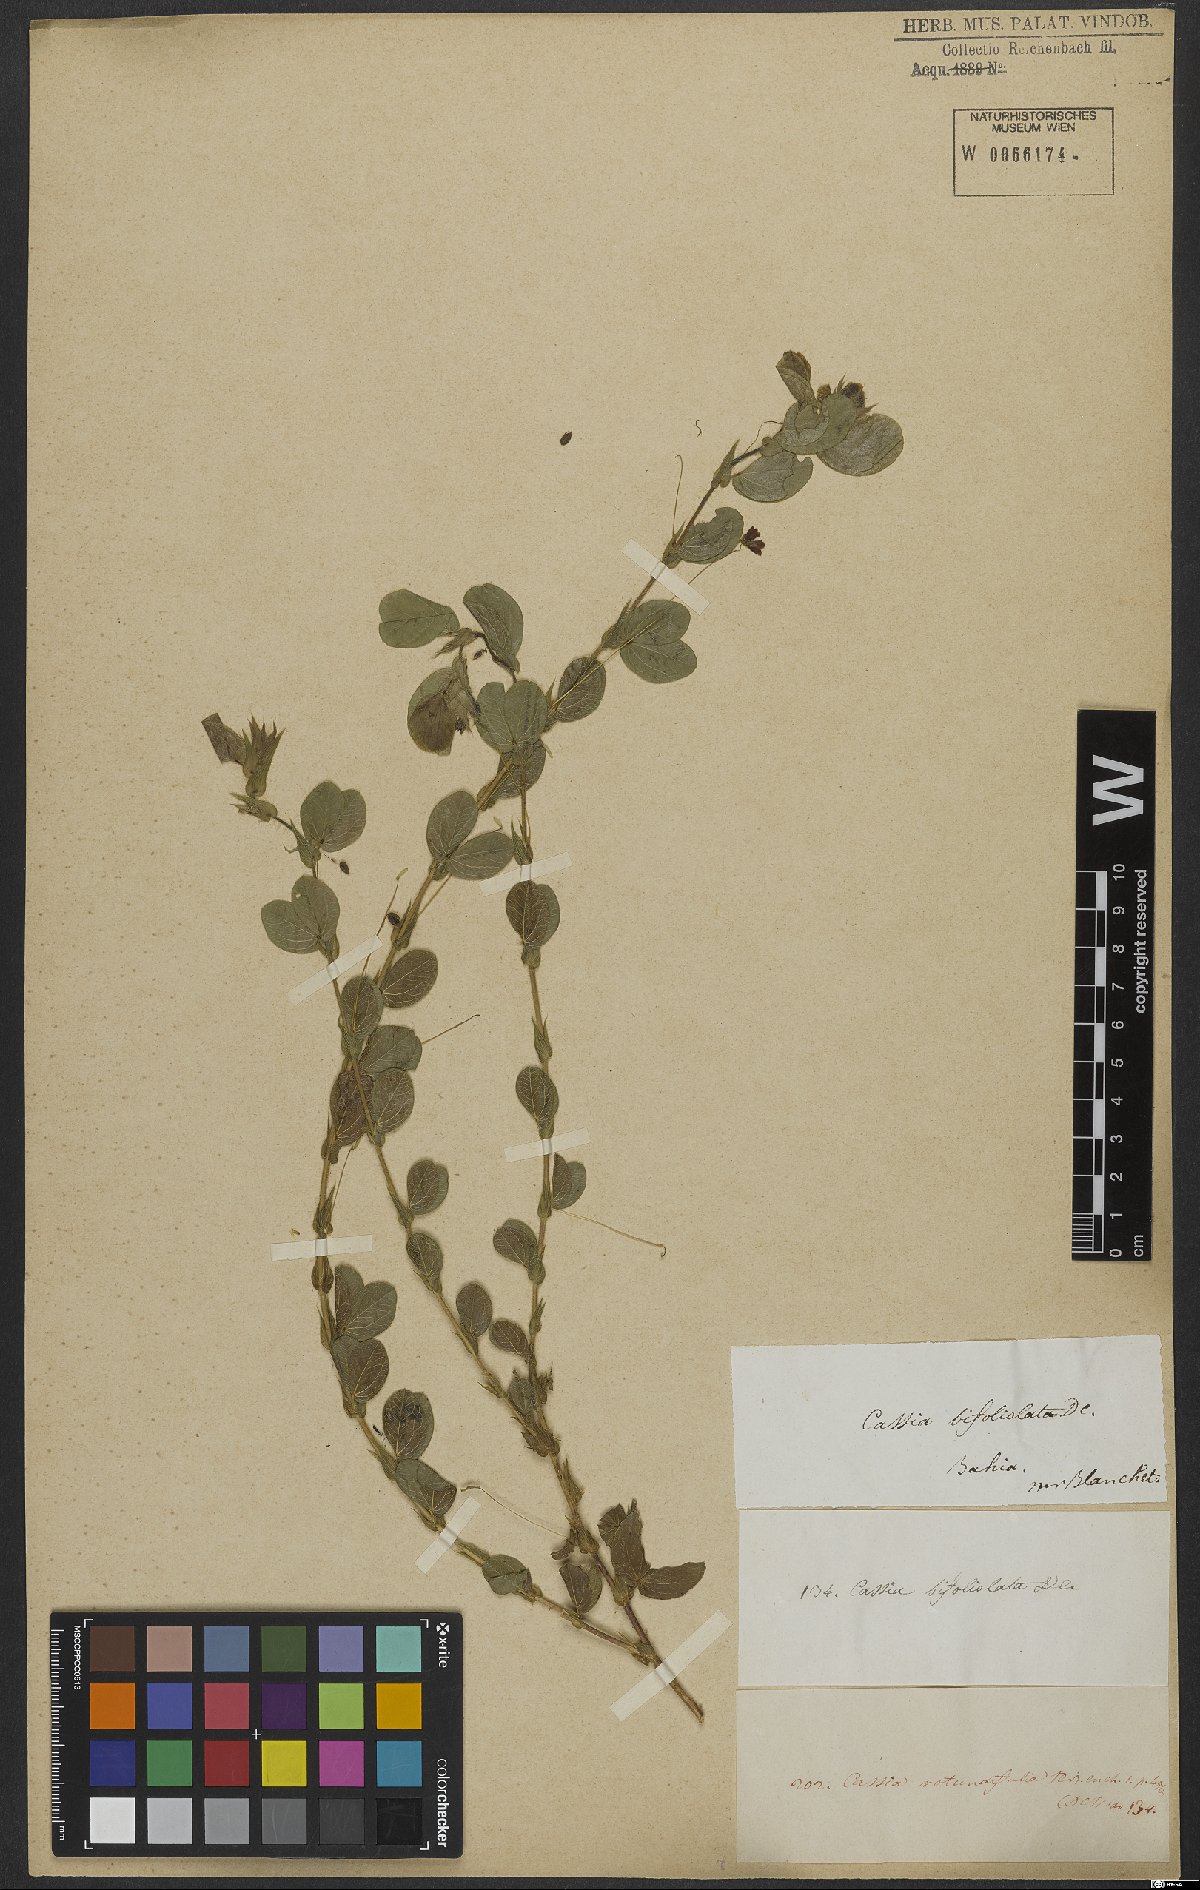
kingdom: Plantae
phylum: Tracheophyta
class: Magnoliopsida
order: Fabales
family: Fabaceae
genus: Chamaecrista
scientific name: Chamaecrista rotundifolia
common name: Round-leaf cassia
